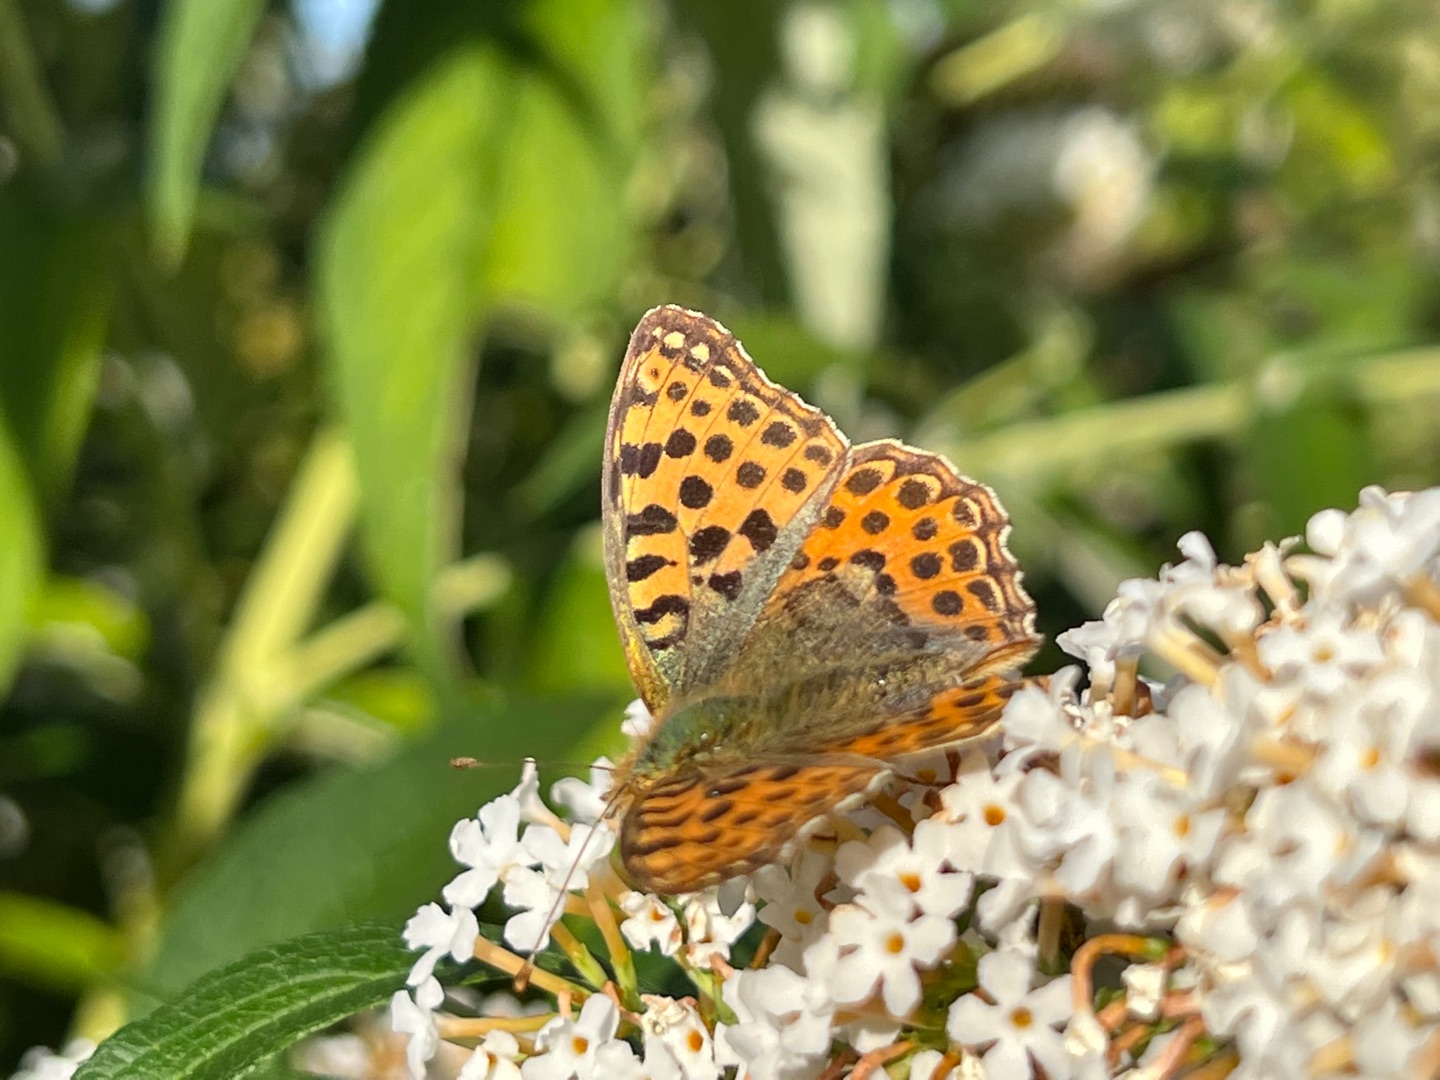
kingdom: Animalia
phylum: Arthropoda
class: Insecta
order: Lepidoptera
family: Nymphalidae
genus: Issoria
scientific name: Issoria lathonia
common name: Storplettet perlemorsommerfugl
